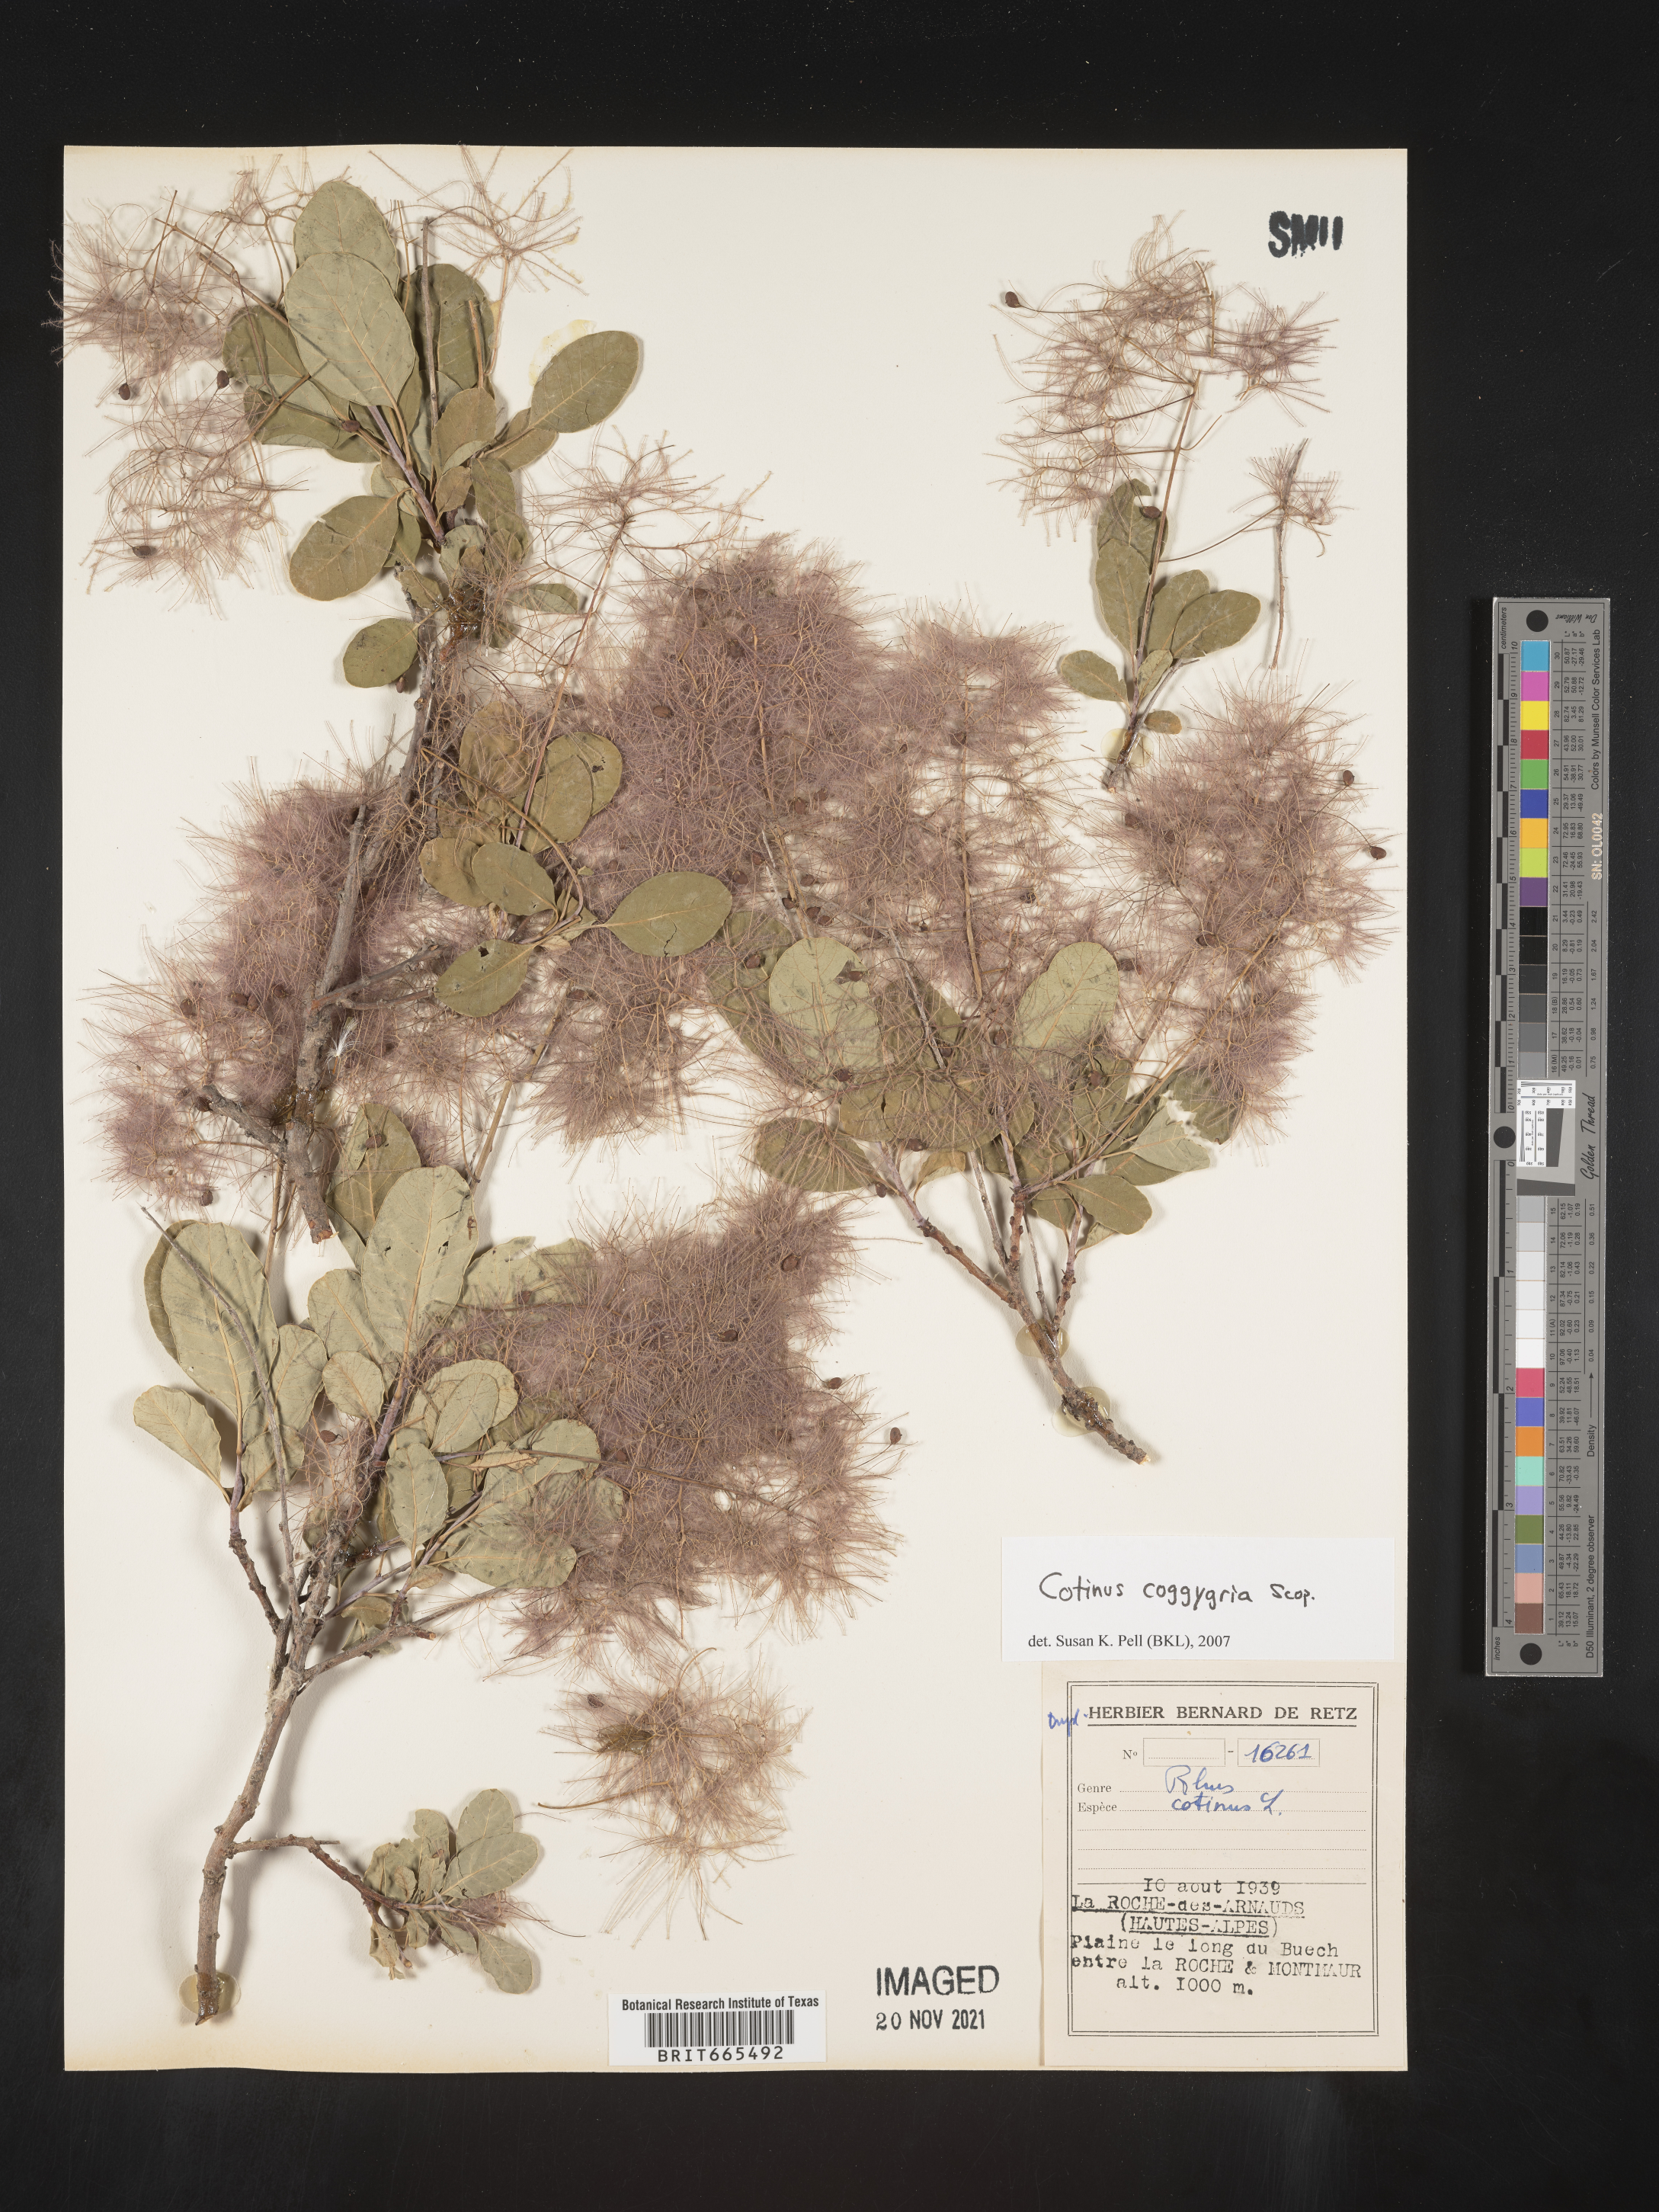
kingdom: Plantae
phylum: Tracheophyta
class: Magnoliopsida
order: Sapindales
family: Anacardiaceae
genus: Cotinus
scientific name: Cotinus
